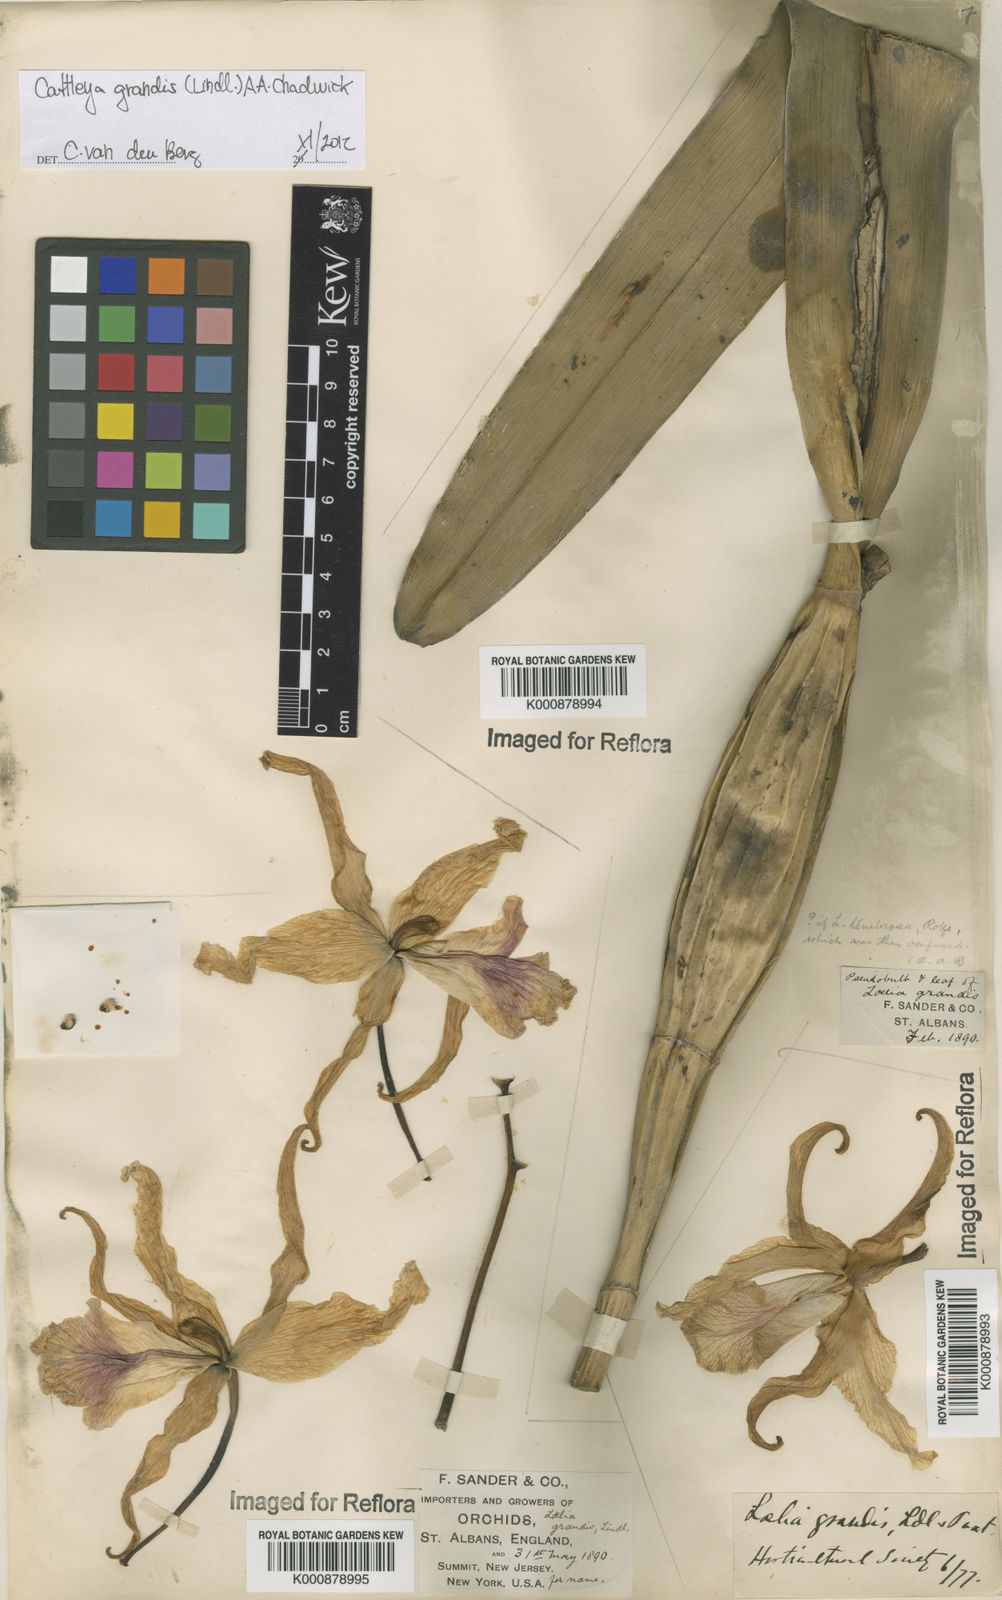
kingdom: Plantae
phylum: Tracheophyta
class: Liliopsida
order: Asparagales
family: Orchidaceae
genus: Cattleya
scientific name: Cattleya grandis
